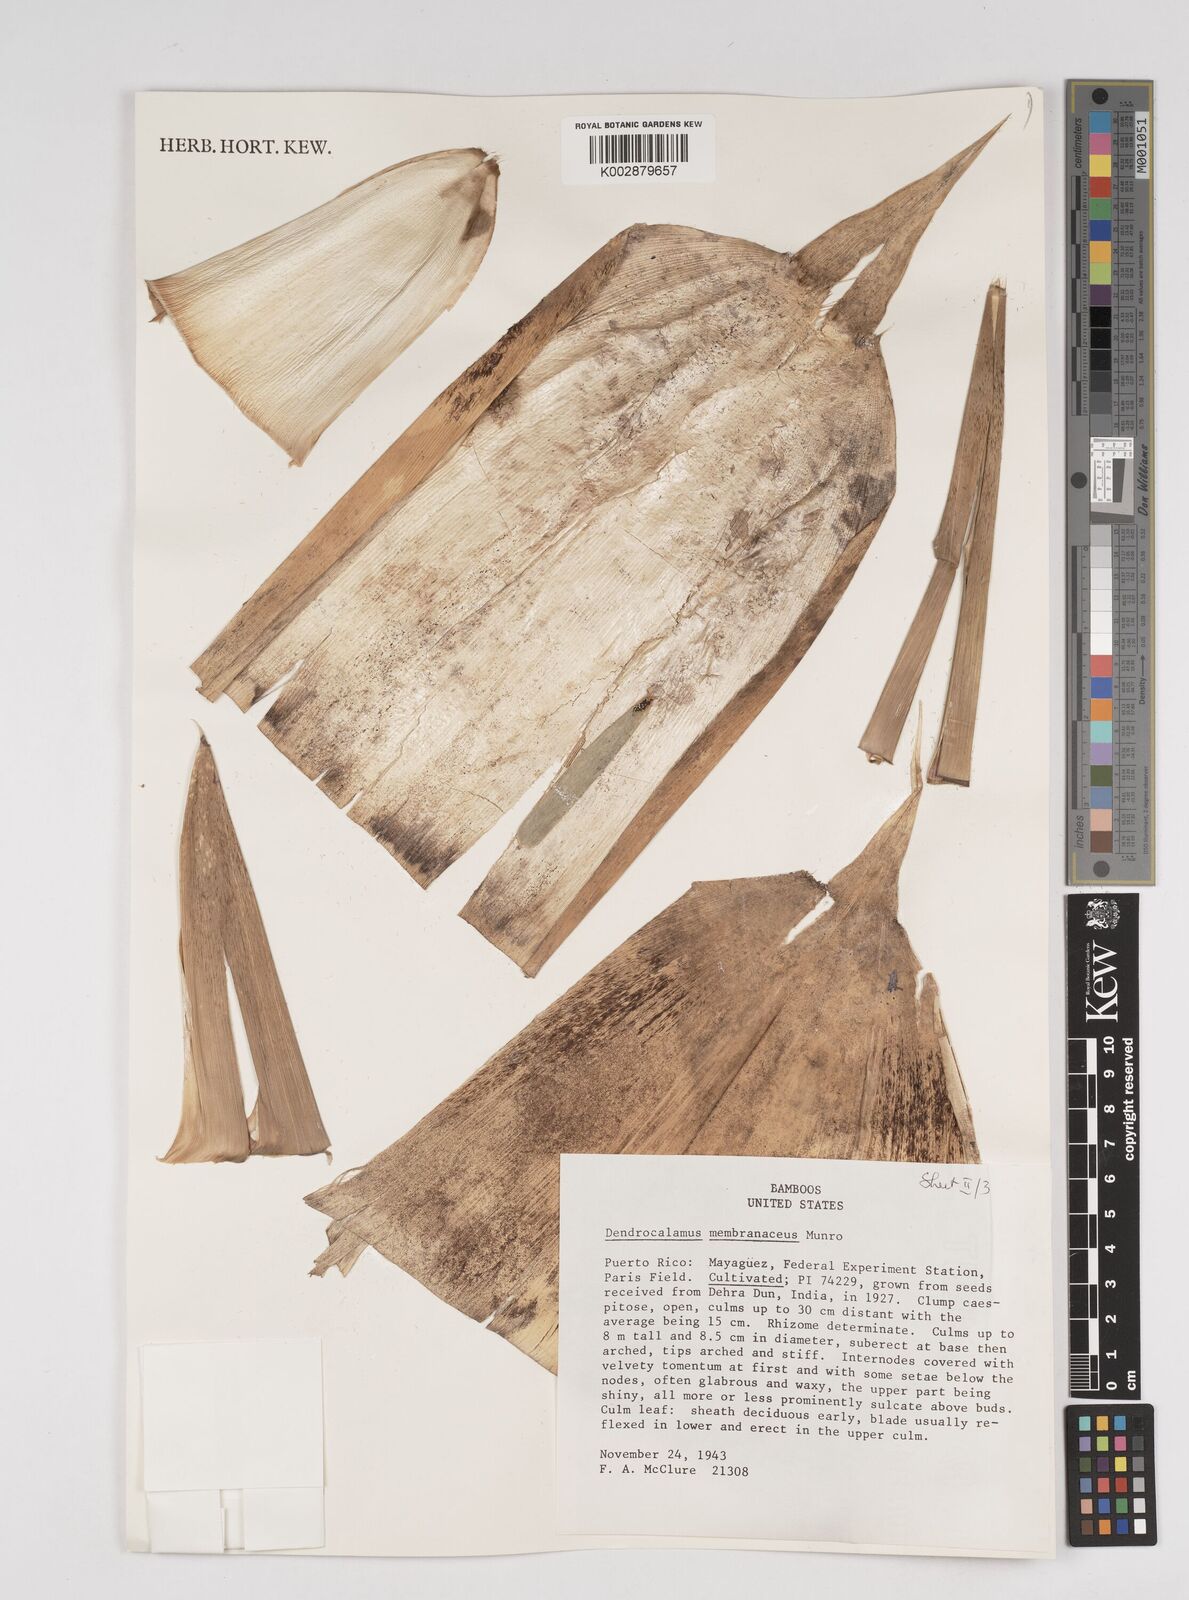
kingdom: Plantae
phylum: Tracheophyta
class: Liliopsida
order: Poales
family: Poaceae
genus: Dendrocalamus
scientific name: Dendrocalamus membranaceus
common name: White bamboo
